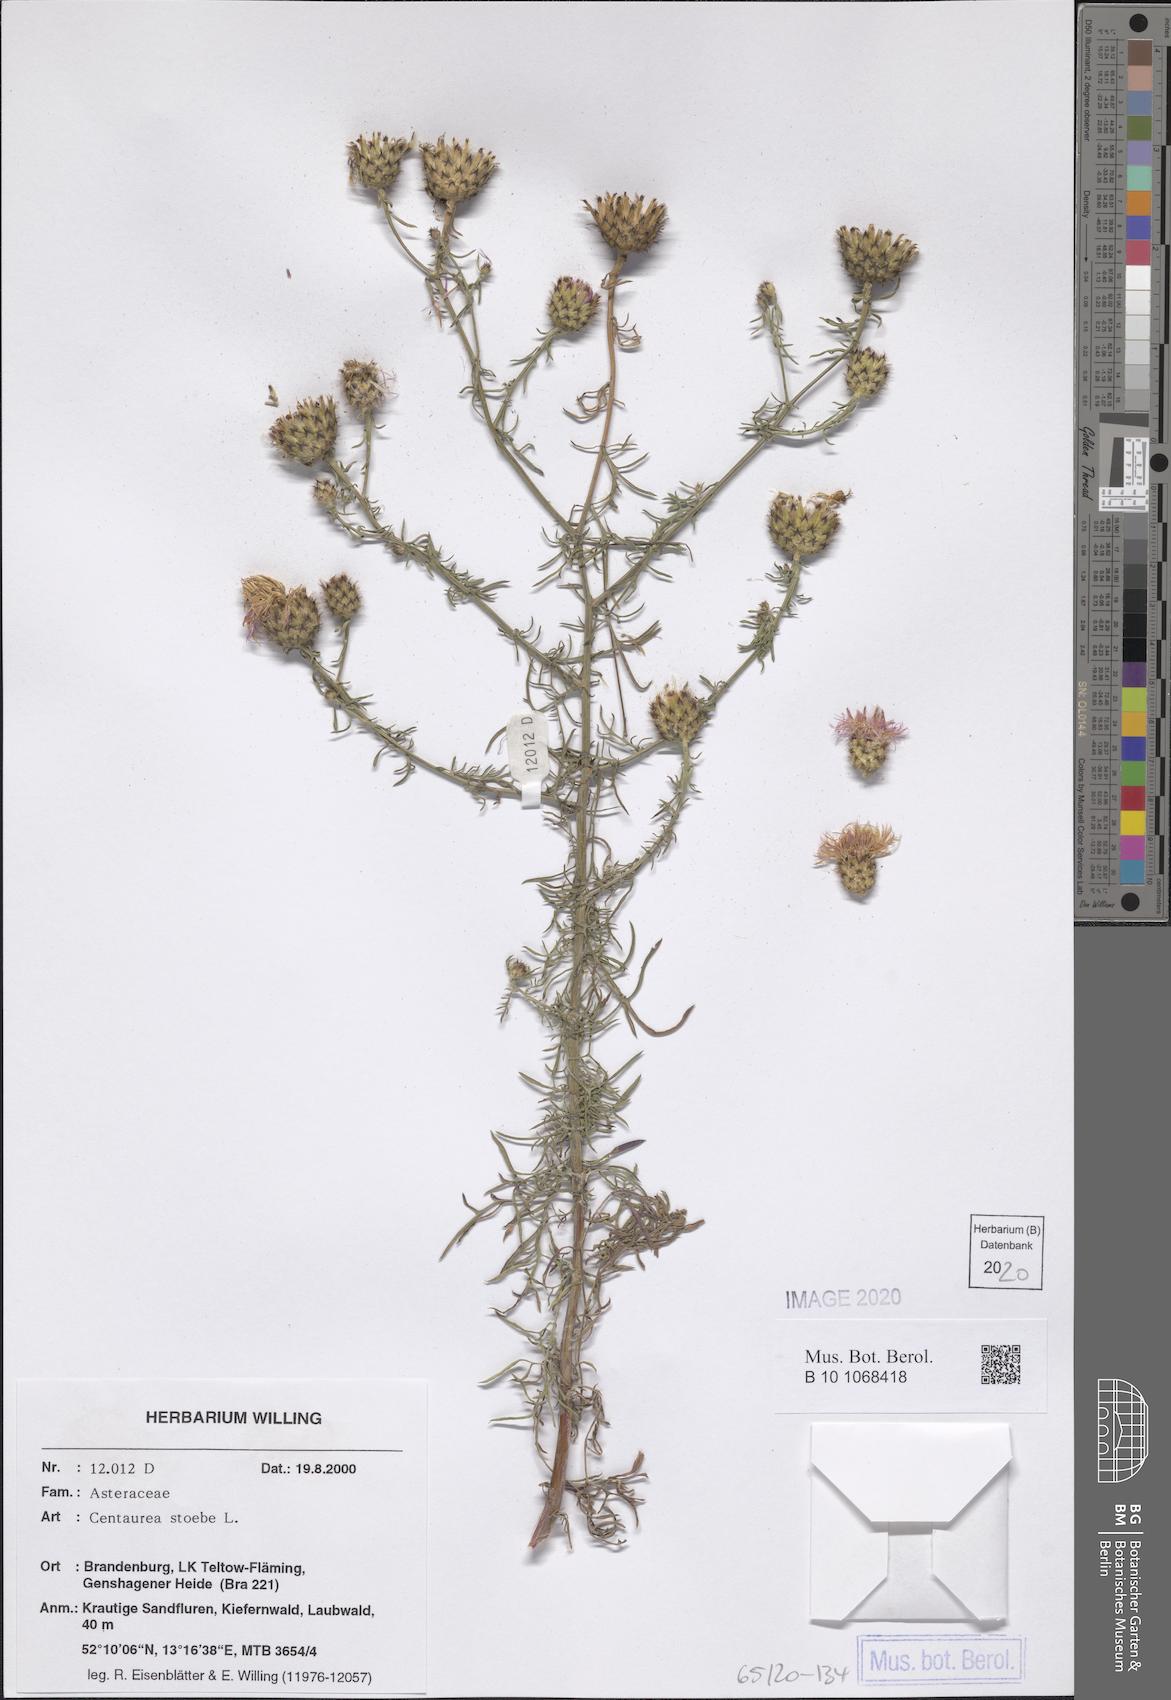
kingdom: Plantae
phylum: Tracheophyta
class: Magnoliopsida
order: Asterales
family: Asteraceae
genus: Centaurea
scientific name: Centaurea stoebe
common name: Spotted knapweed
